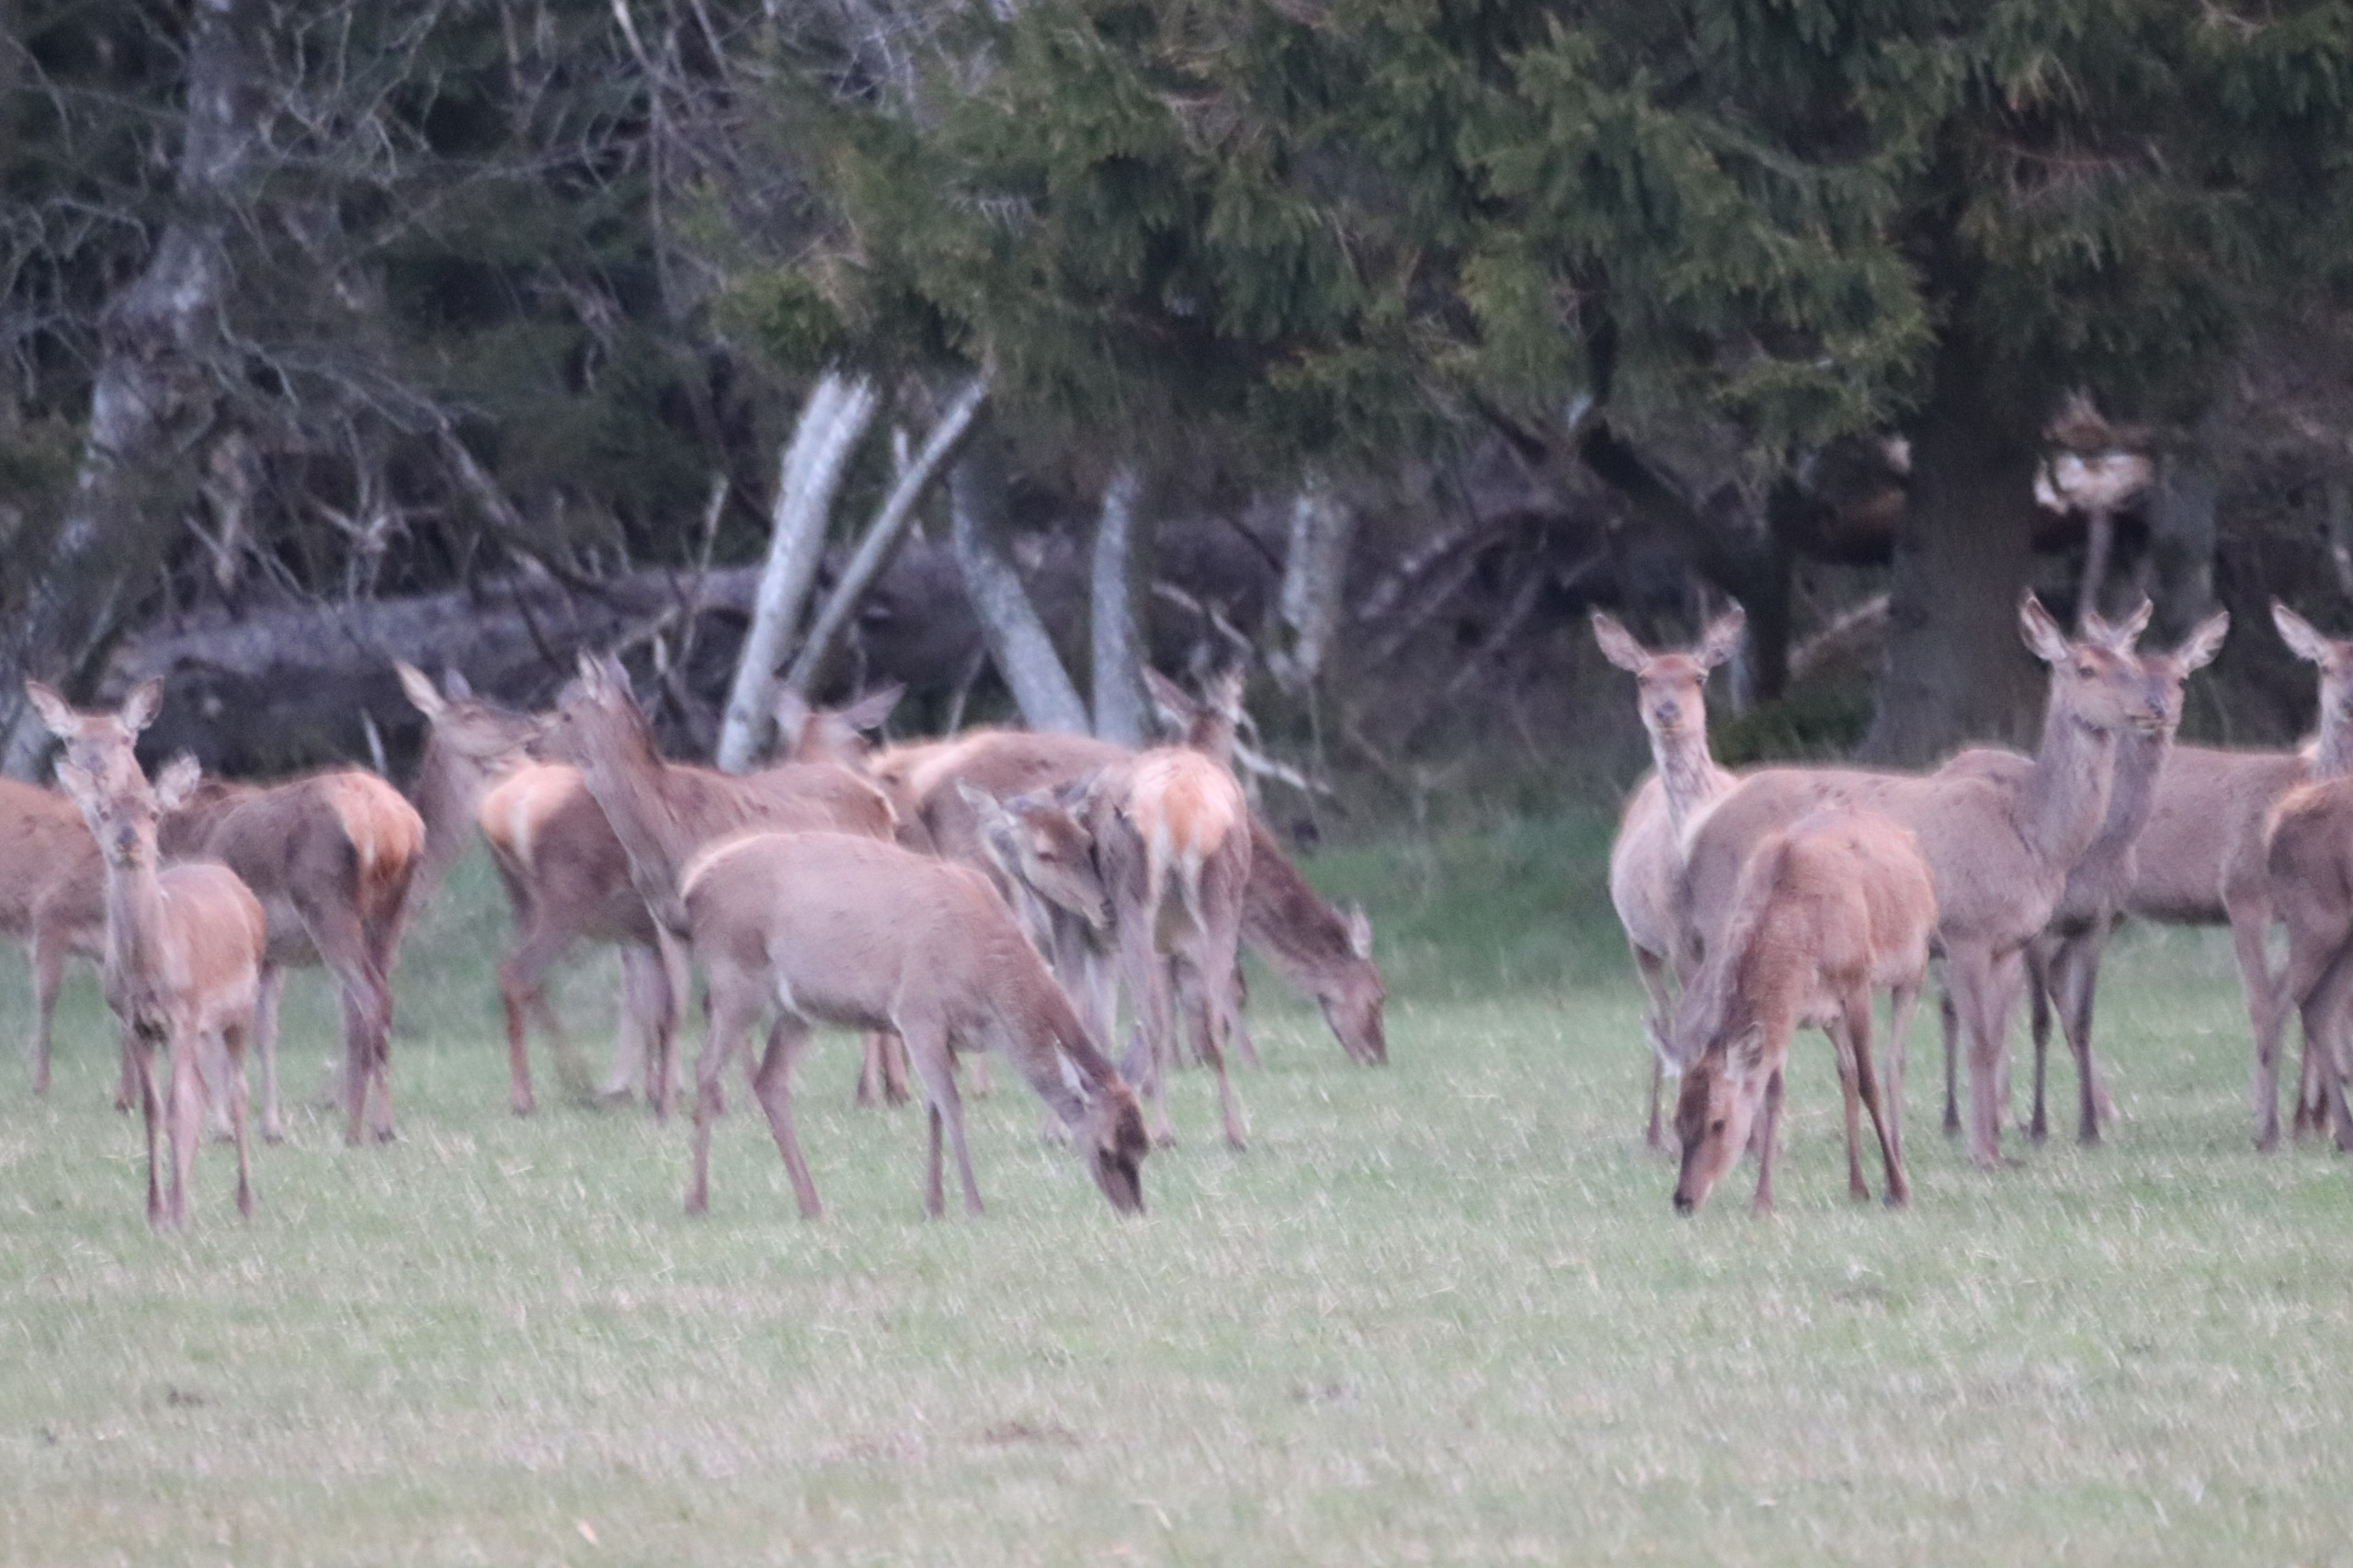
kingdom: Animalia
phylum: Chordata
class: Mammalia
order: Artiodactyla
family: Cervidae
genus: Cervus
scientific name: Cervus elaphus
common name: Krondyr
